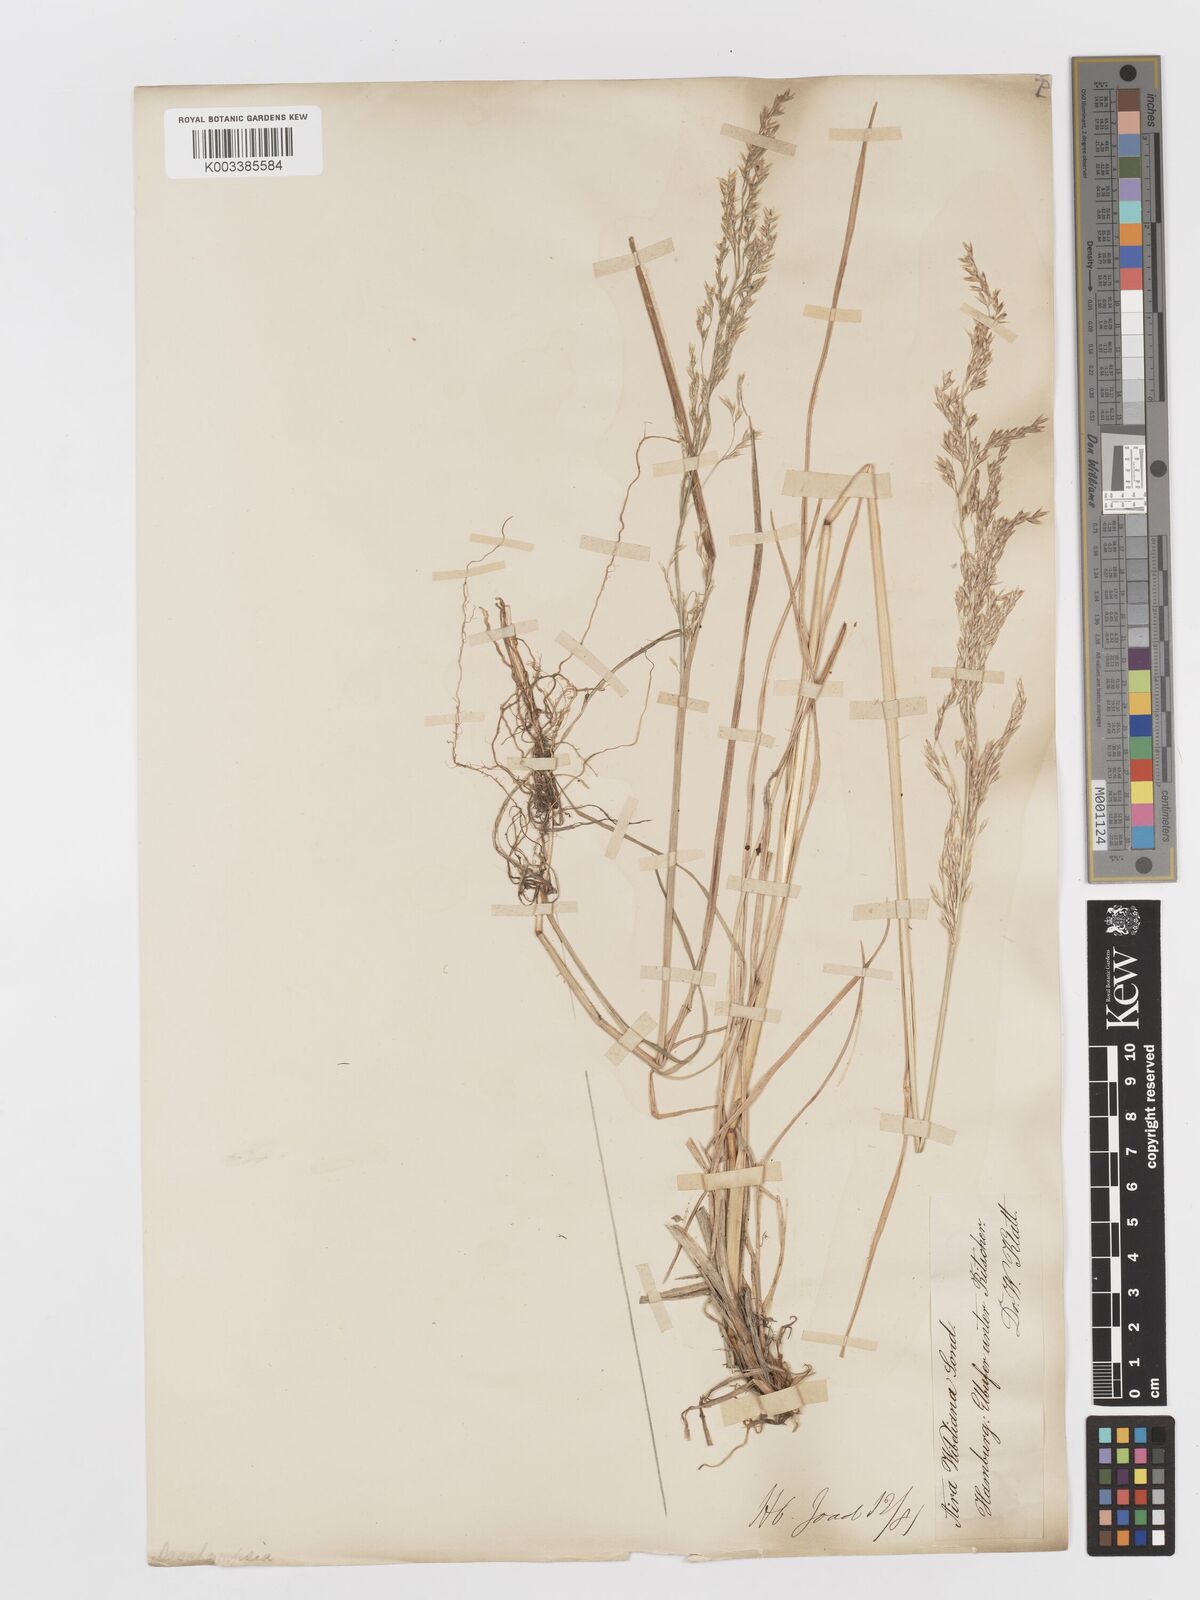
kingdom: Plantae
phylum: Tracheophyta
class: Liliopsida
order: Poales
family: Poaceae
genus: Deschampsia
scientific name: Deschampsia cespitosa
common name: Tufted hair-grass
